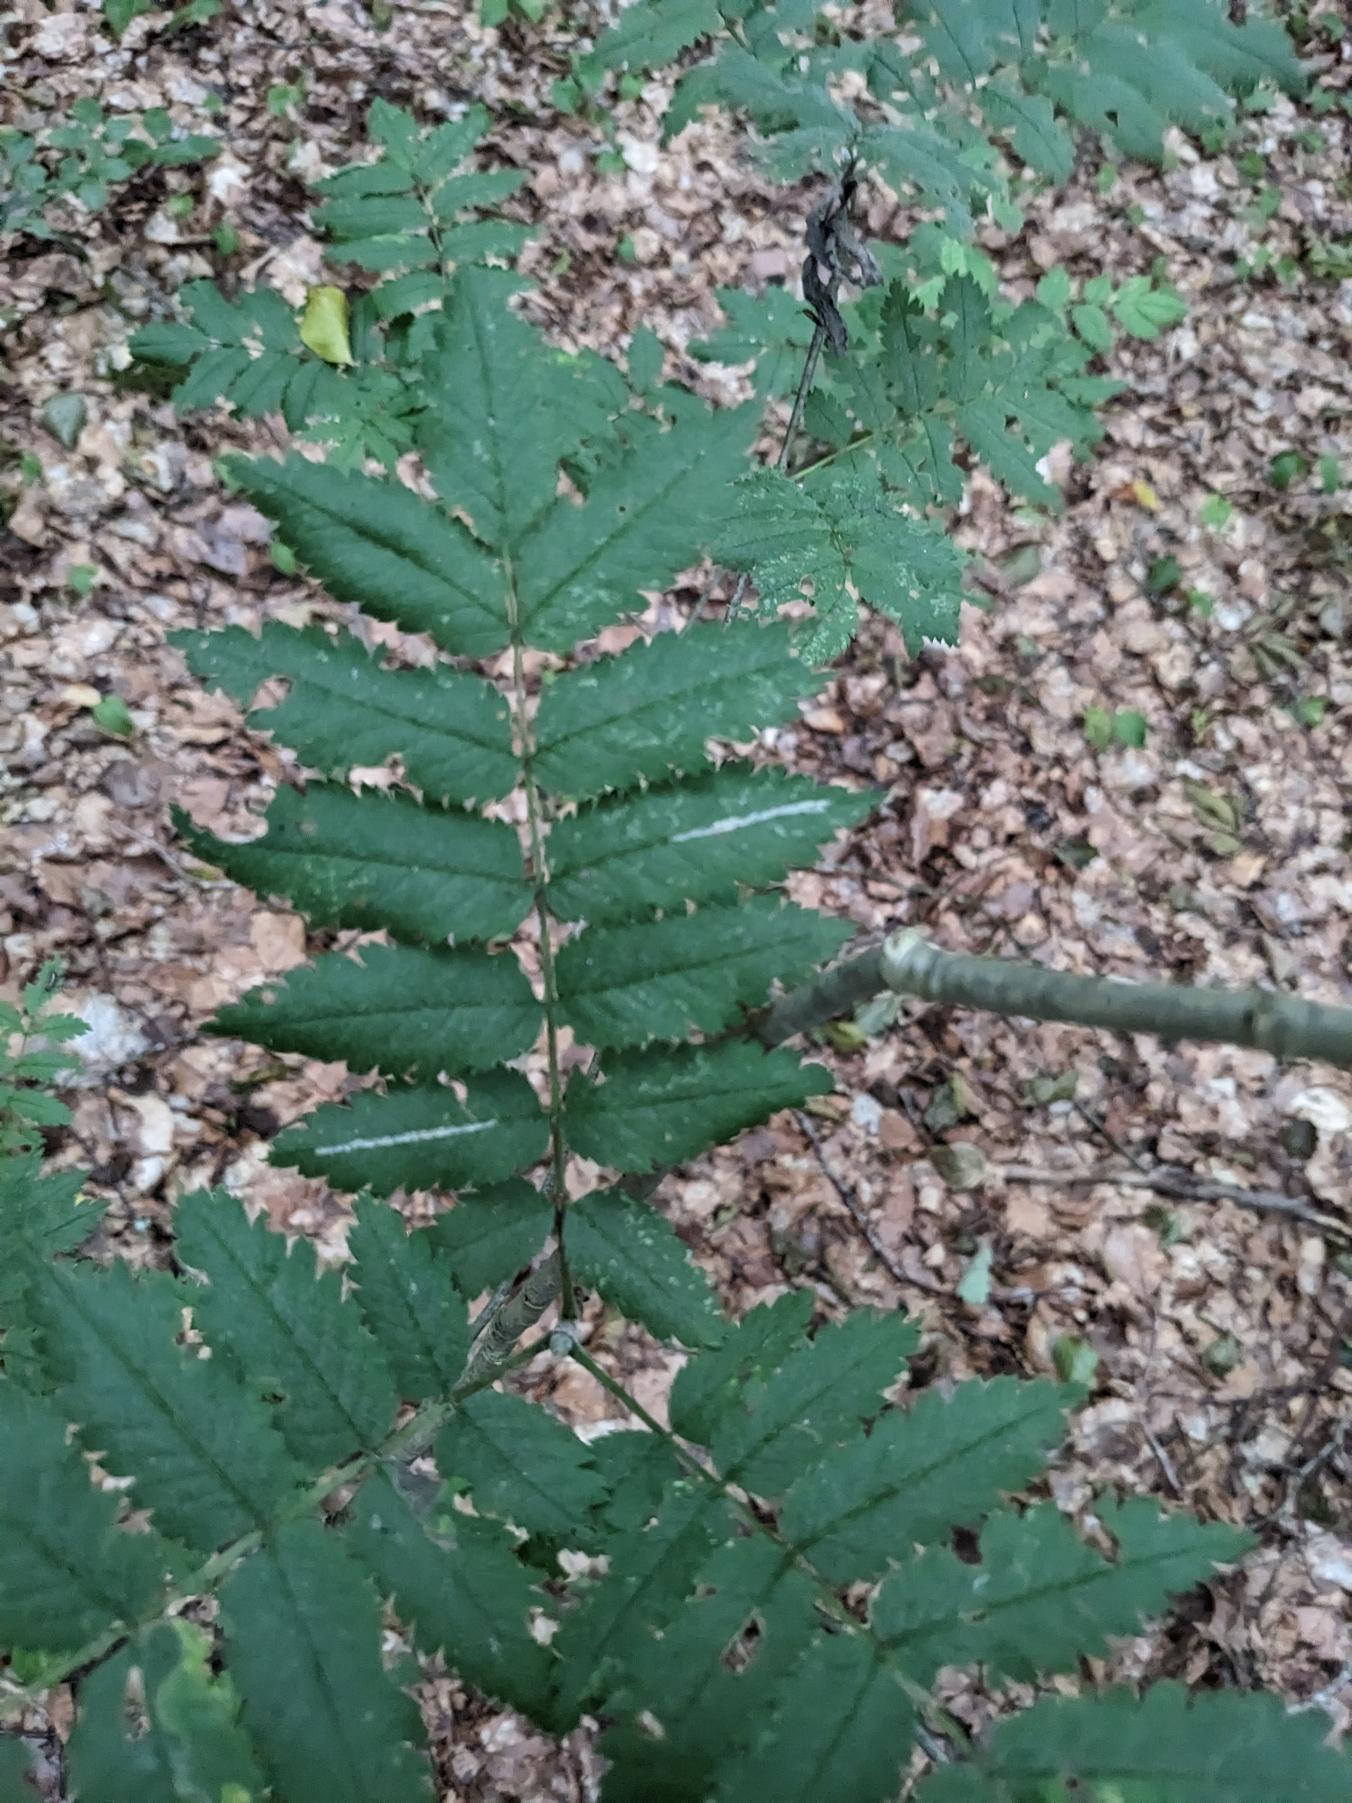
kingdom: Plantae
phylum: Tracheophyta
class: Magnoliopsida
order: Rosales
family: Rosaceae
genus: Sorbus
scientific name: Sorbus aucuparia
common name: Almindelig røn
